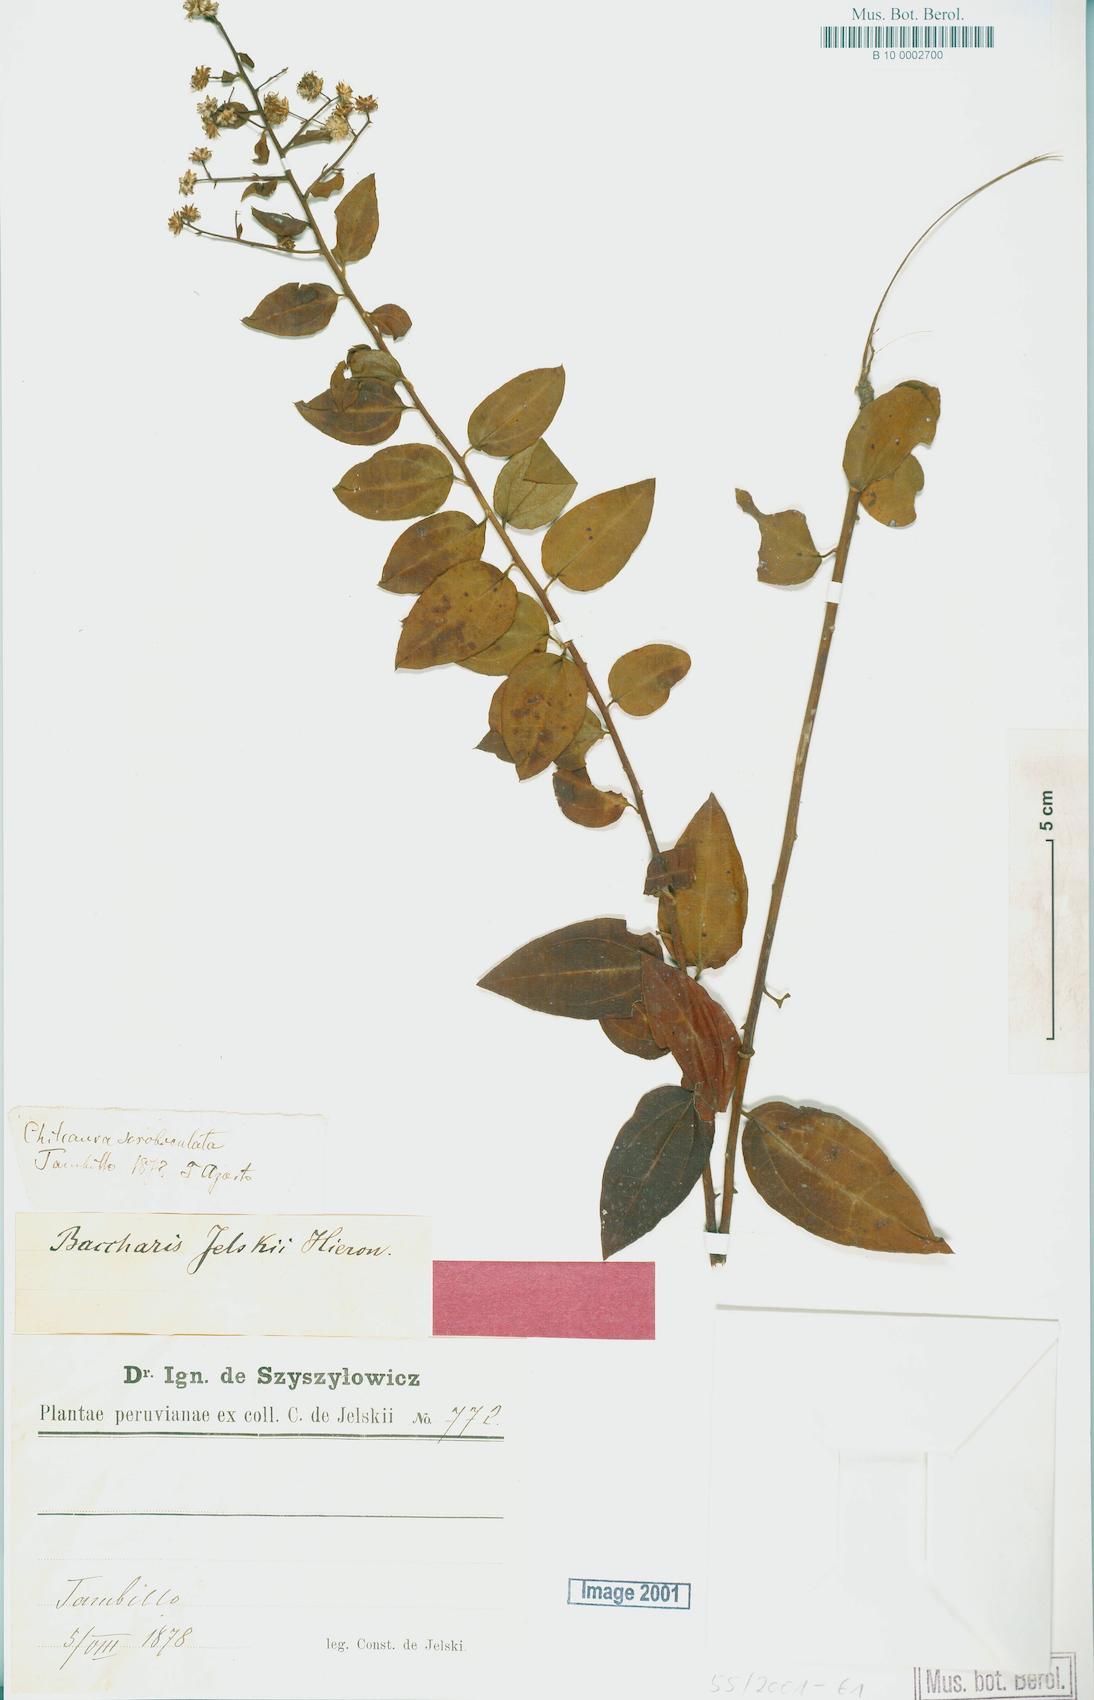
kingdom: Plantae
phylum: Tracheophyta
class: Magnoliopsida
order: Asterales
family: Asteraceae
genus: Baccharis
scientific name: Baccharis jelskii
